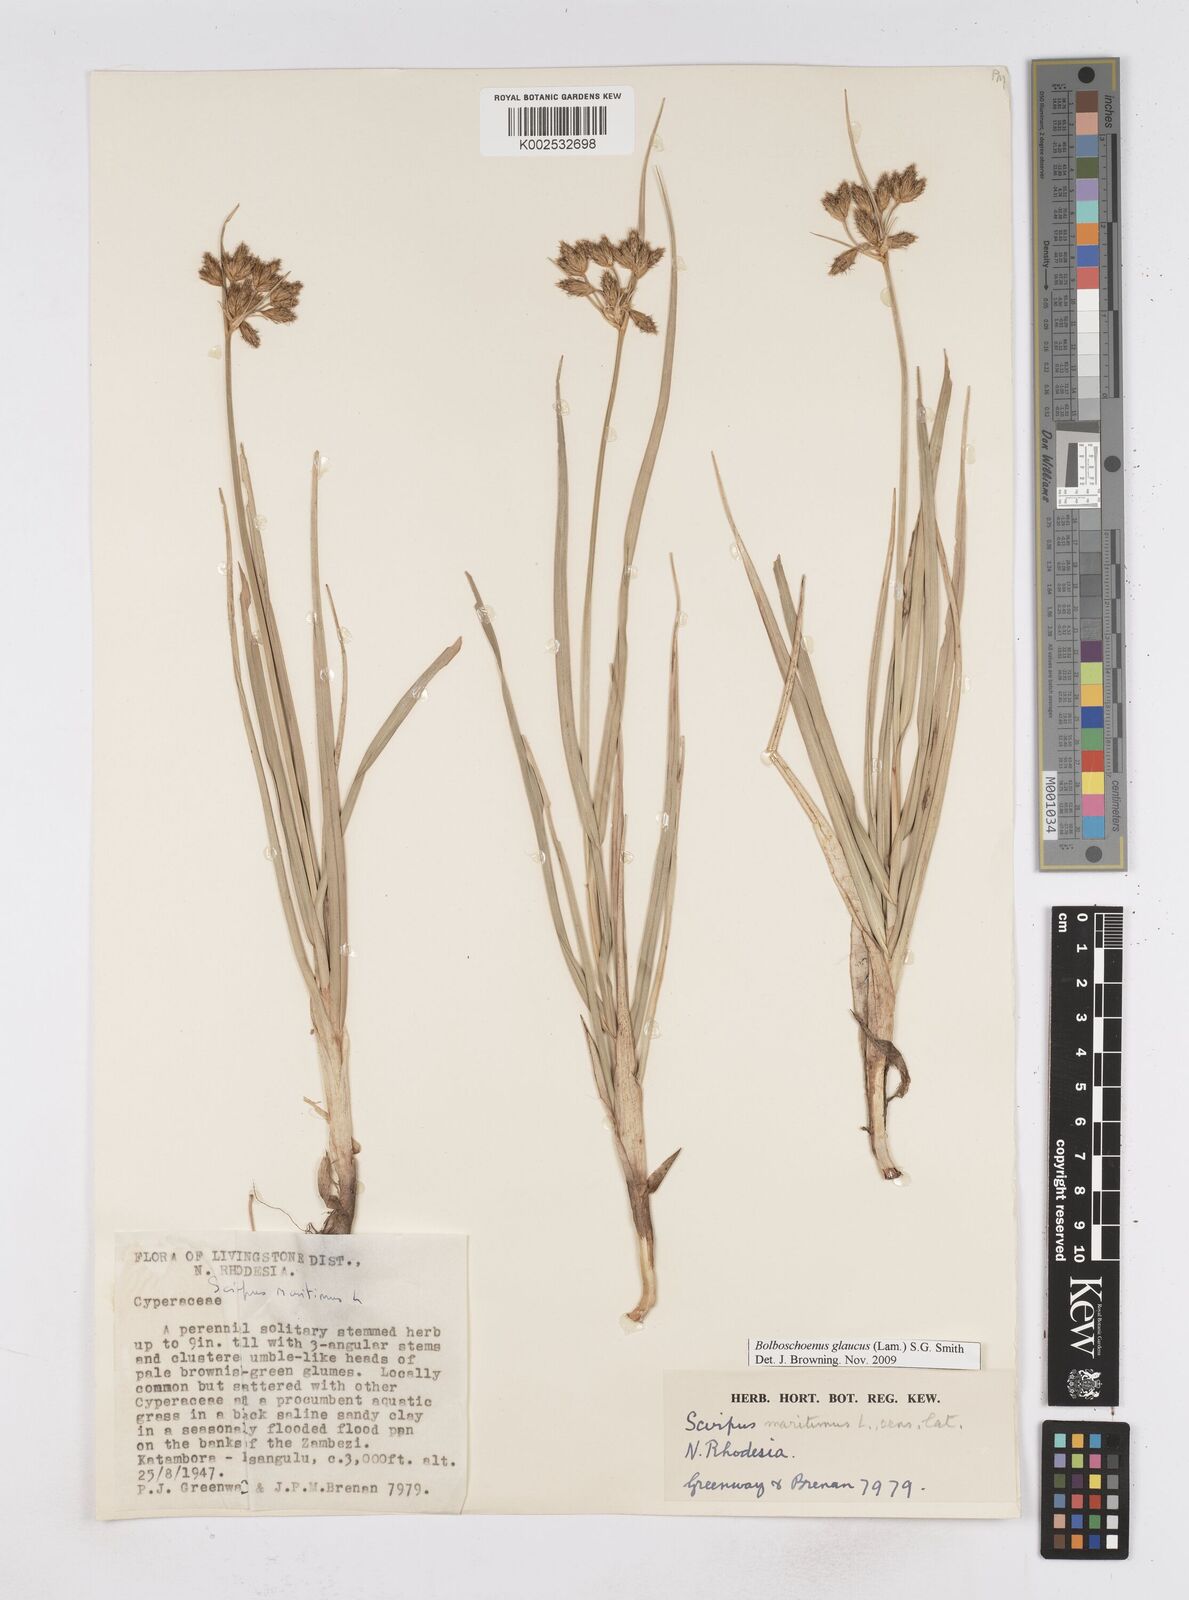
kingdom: Plantae
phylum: Tracheophyta
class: Liliopsida
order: Poales
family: Cyperaceae
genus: Bolboschoenus
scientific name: Bolboschoenus glaucus
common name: Tuberous bulrush
